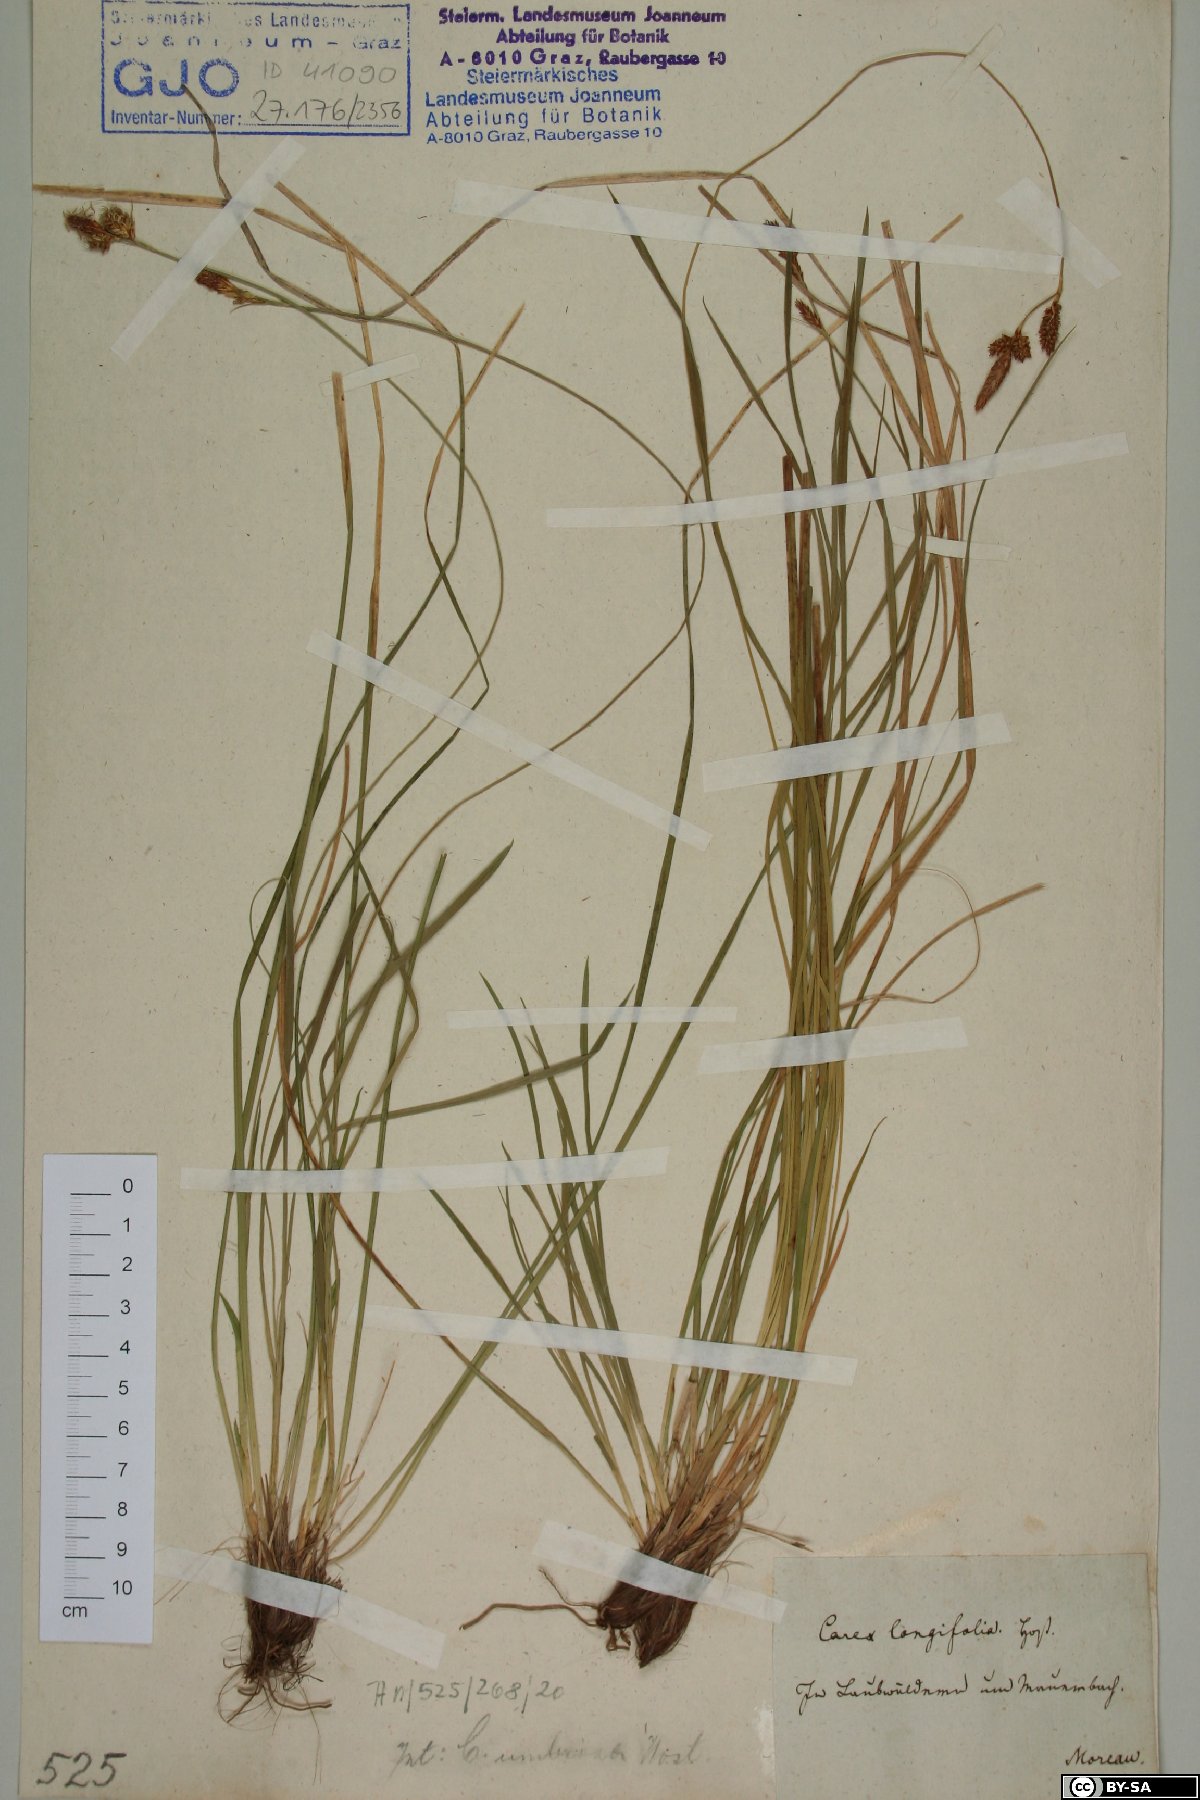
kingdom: Plantae
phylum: Tracheophyta
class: Liliopsida
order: Poales
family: Cyperaceae
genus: Carex
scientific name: Carex umbrosa
